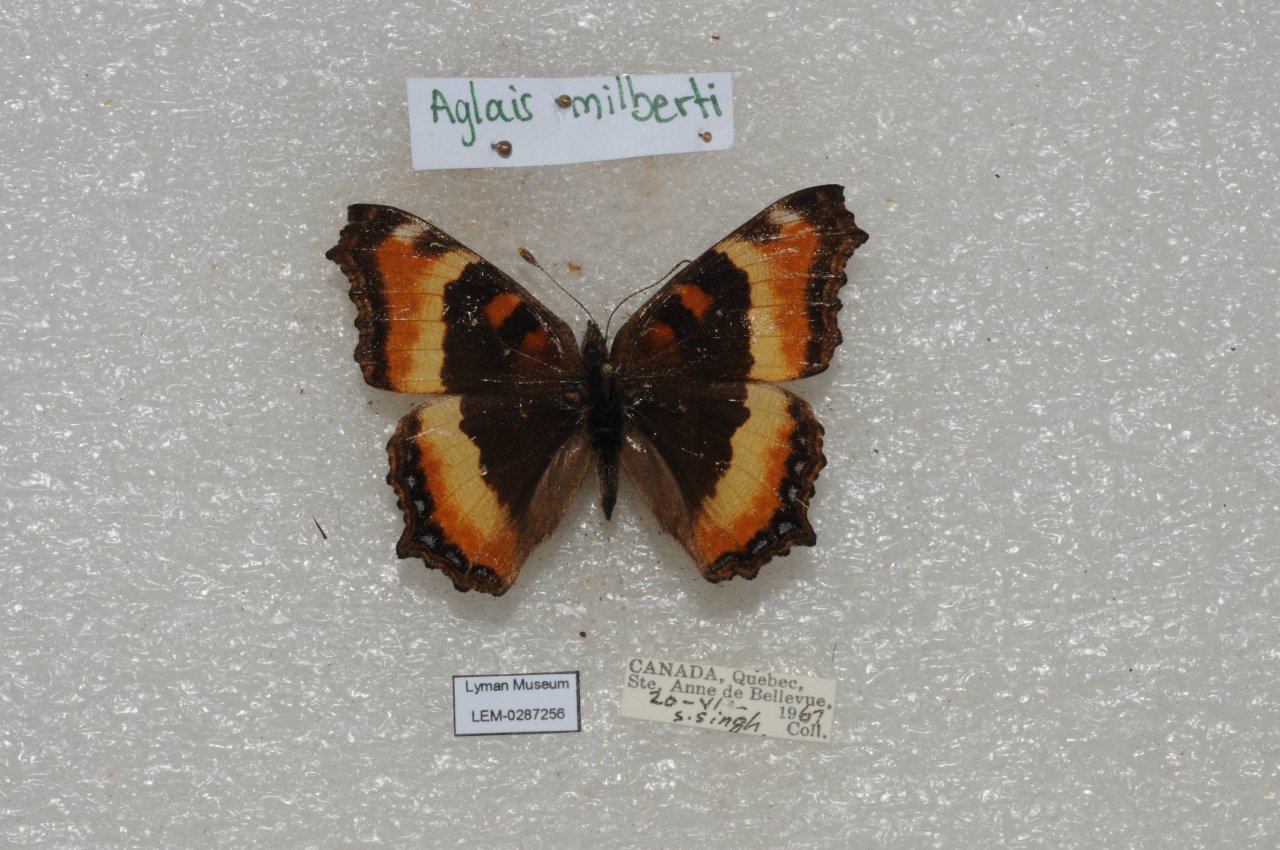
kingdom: Animalia
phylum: Arthropoda
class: Insecta
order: Lepidoptera
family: Nymphalidae
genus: Aglais
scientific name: Aglais milberti
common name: Milbert's Tortoiseshell
